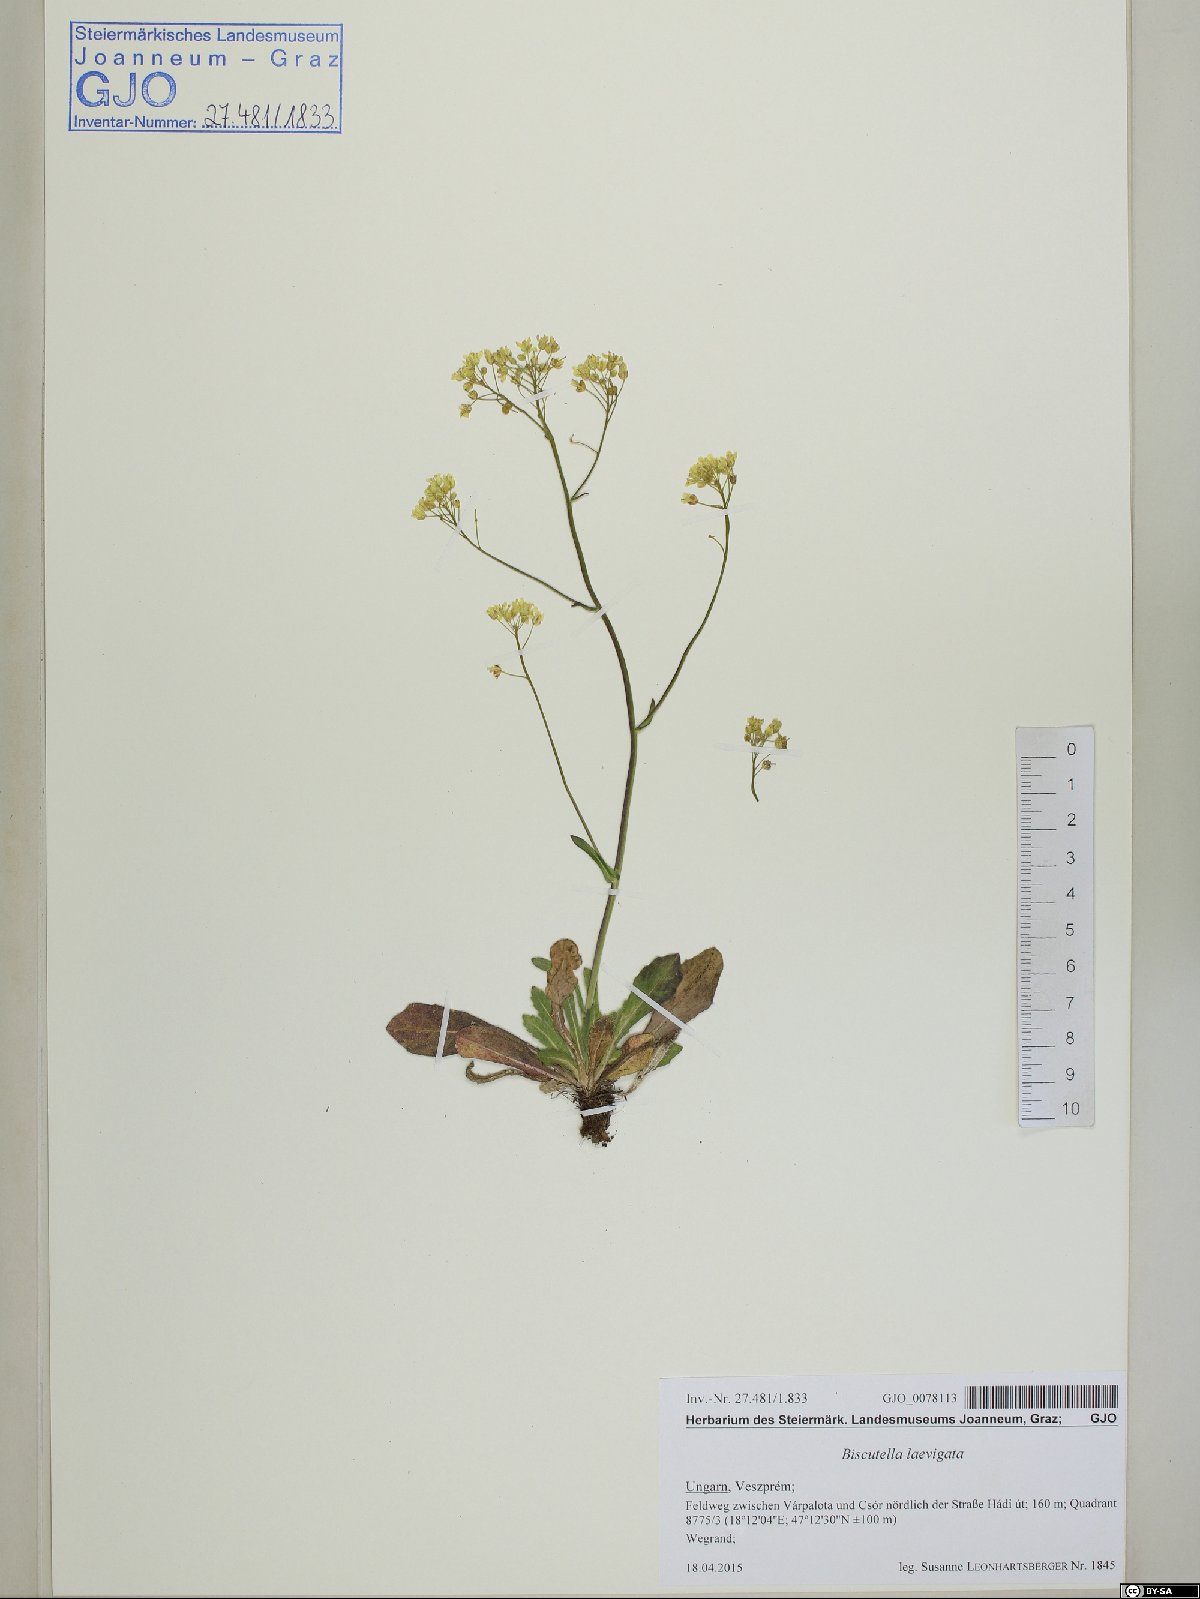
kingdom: Plantae
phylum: Tracheophyta
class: Magnoliopsida
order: Brassicales
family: Brassicaceae
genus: Biscutella
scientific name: Biscutella laevigata
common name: Buckler mustard
